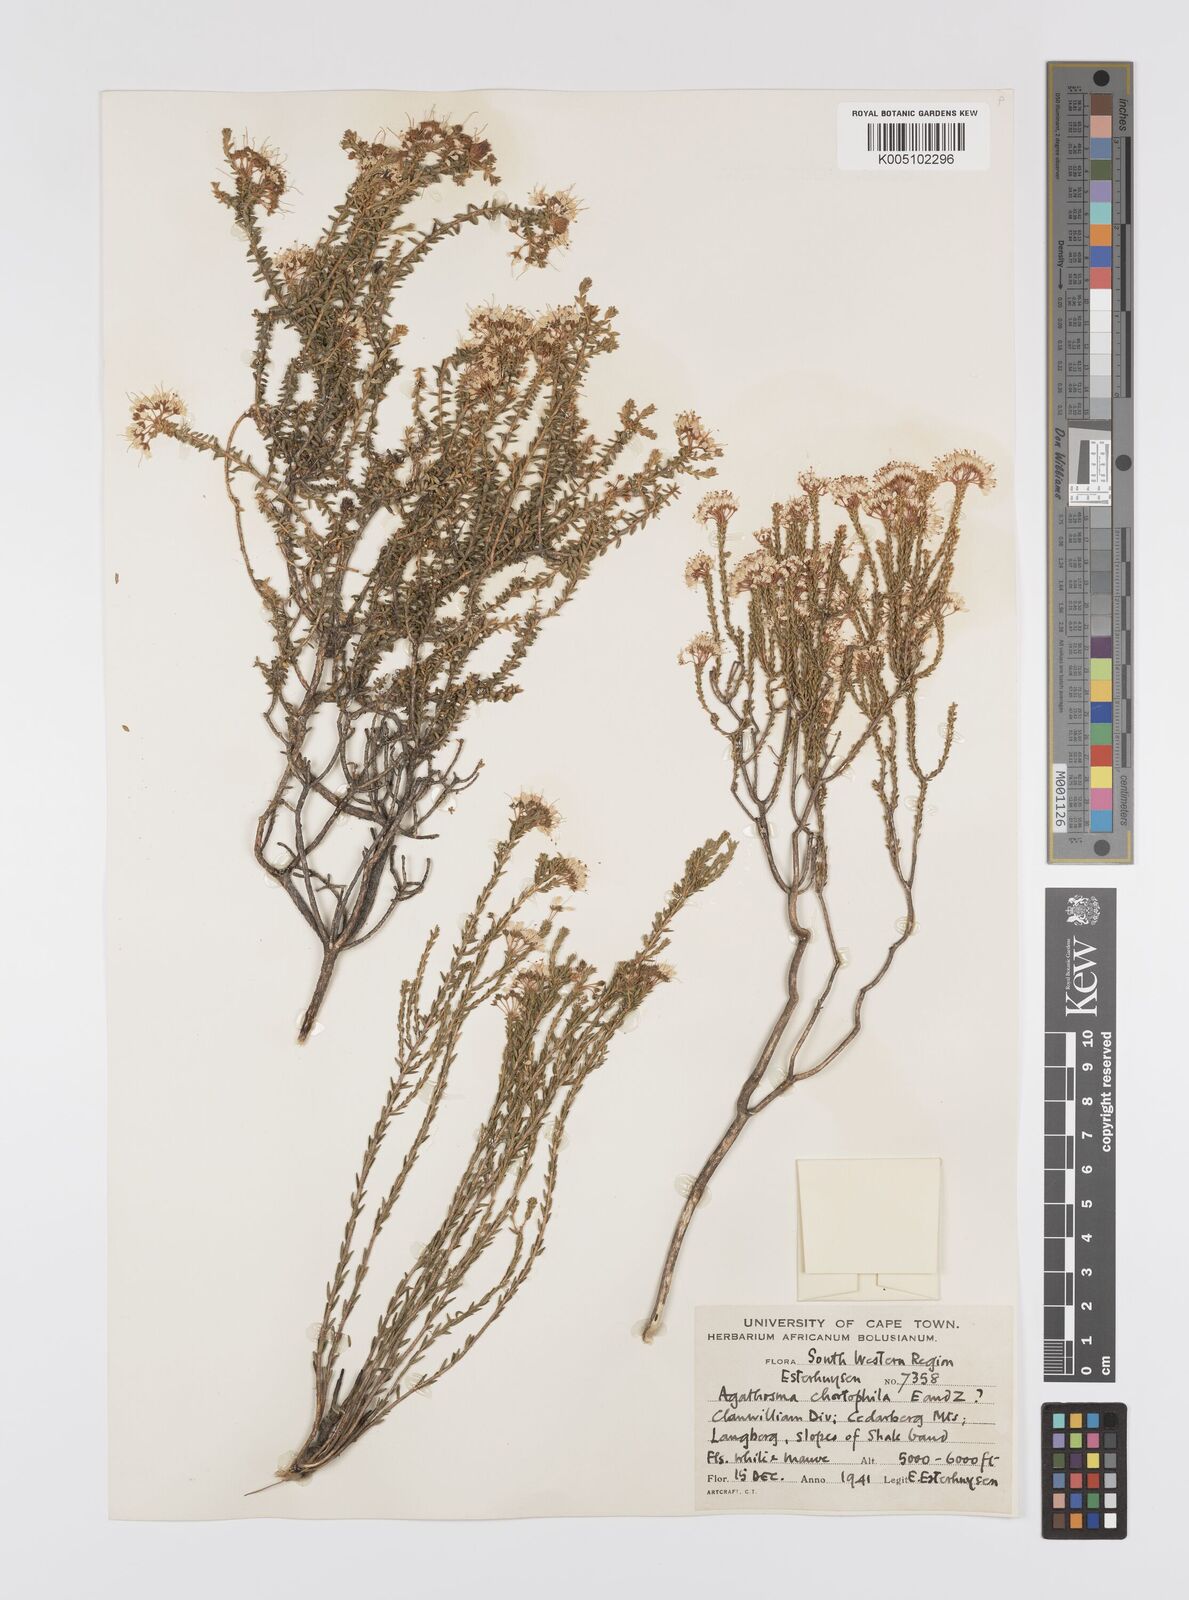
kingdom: Plantae
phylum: Tracheophyta
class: Magnoliopsida
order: Sapindales
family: Rutaceae
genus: Agathosma
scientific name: Agathosma capensis
